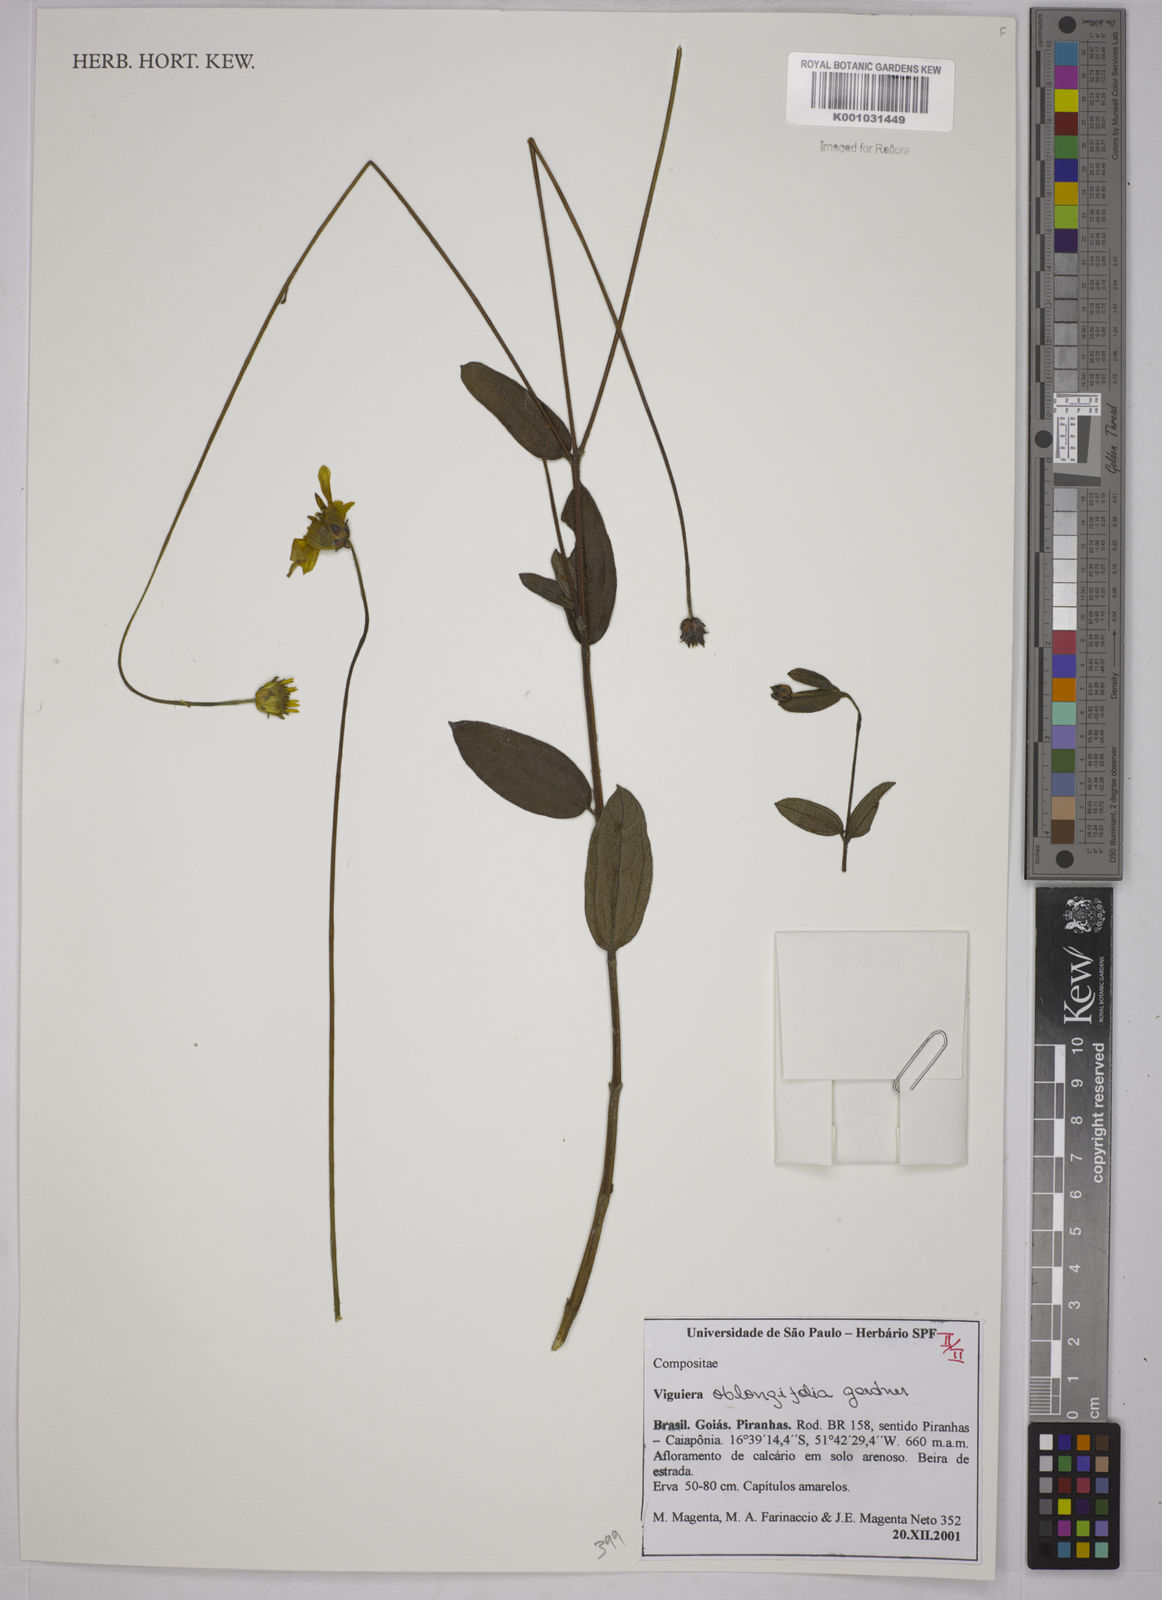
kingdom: Plantae
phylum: Tracheophyta
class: Magnoliopsida
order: Asterales
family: Asteraceae
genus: Aldama
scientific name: Aldama oblongifolia
